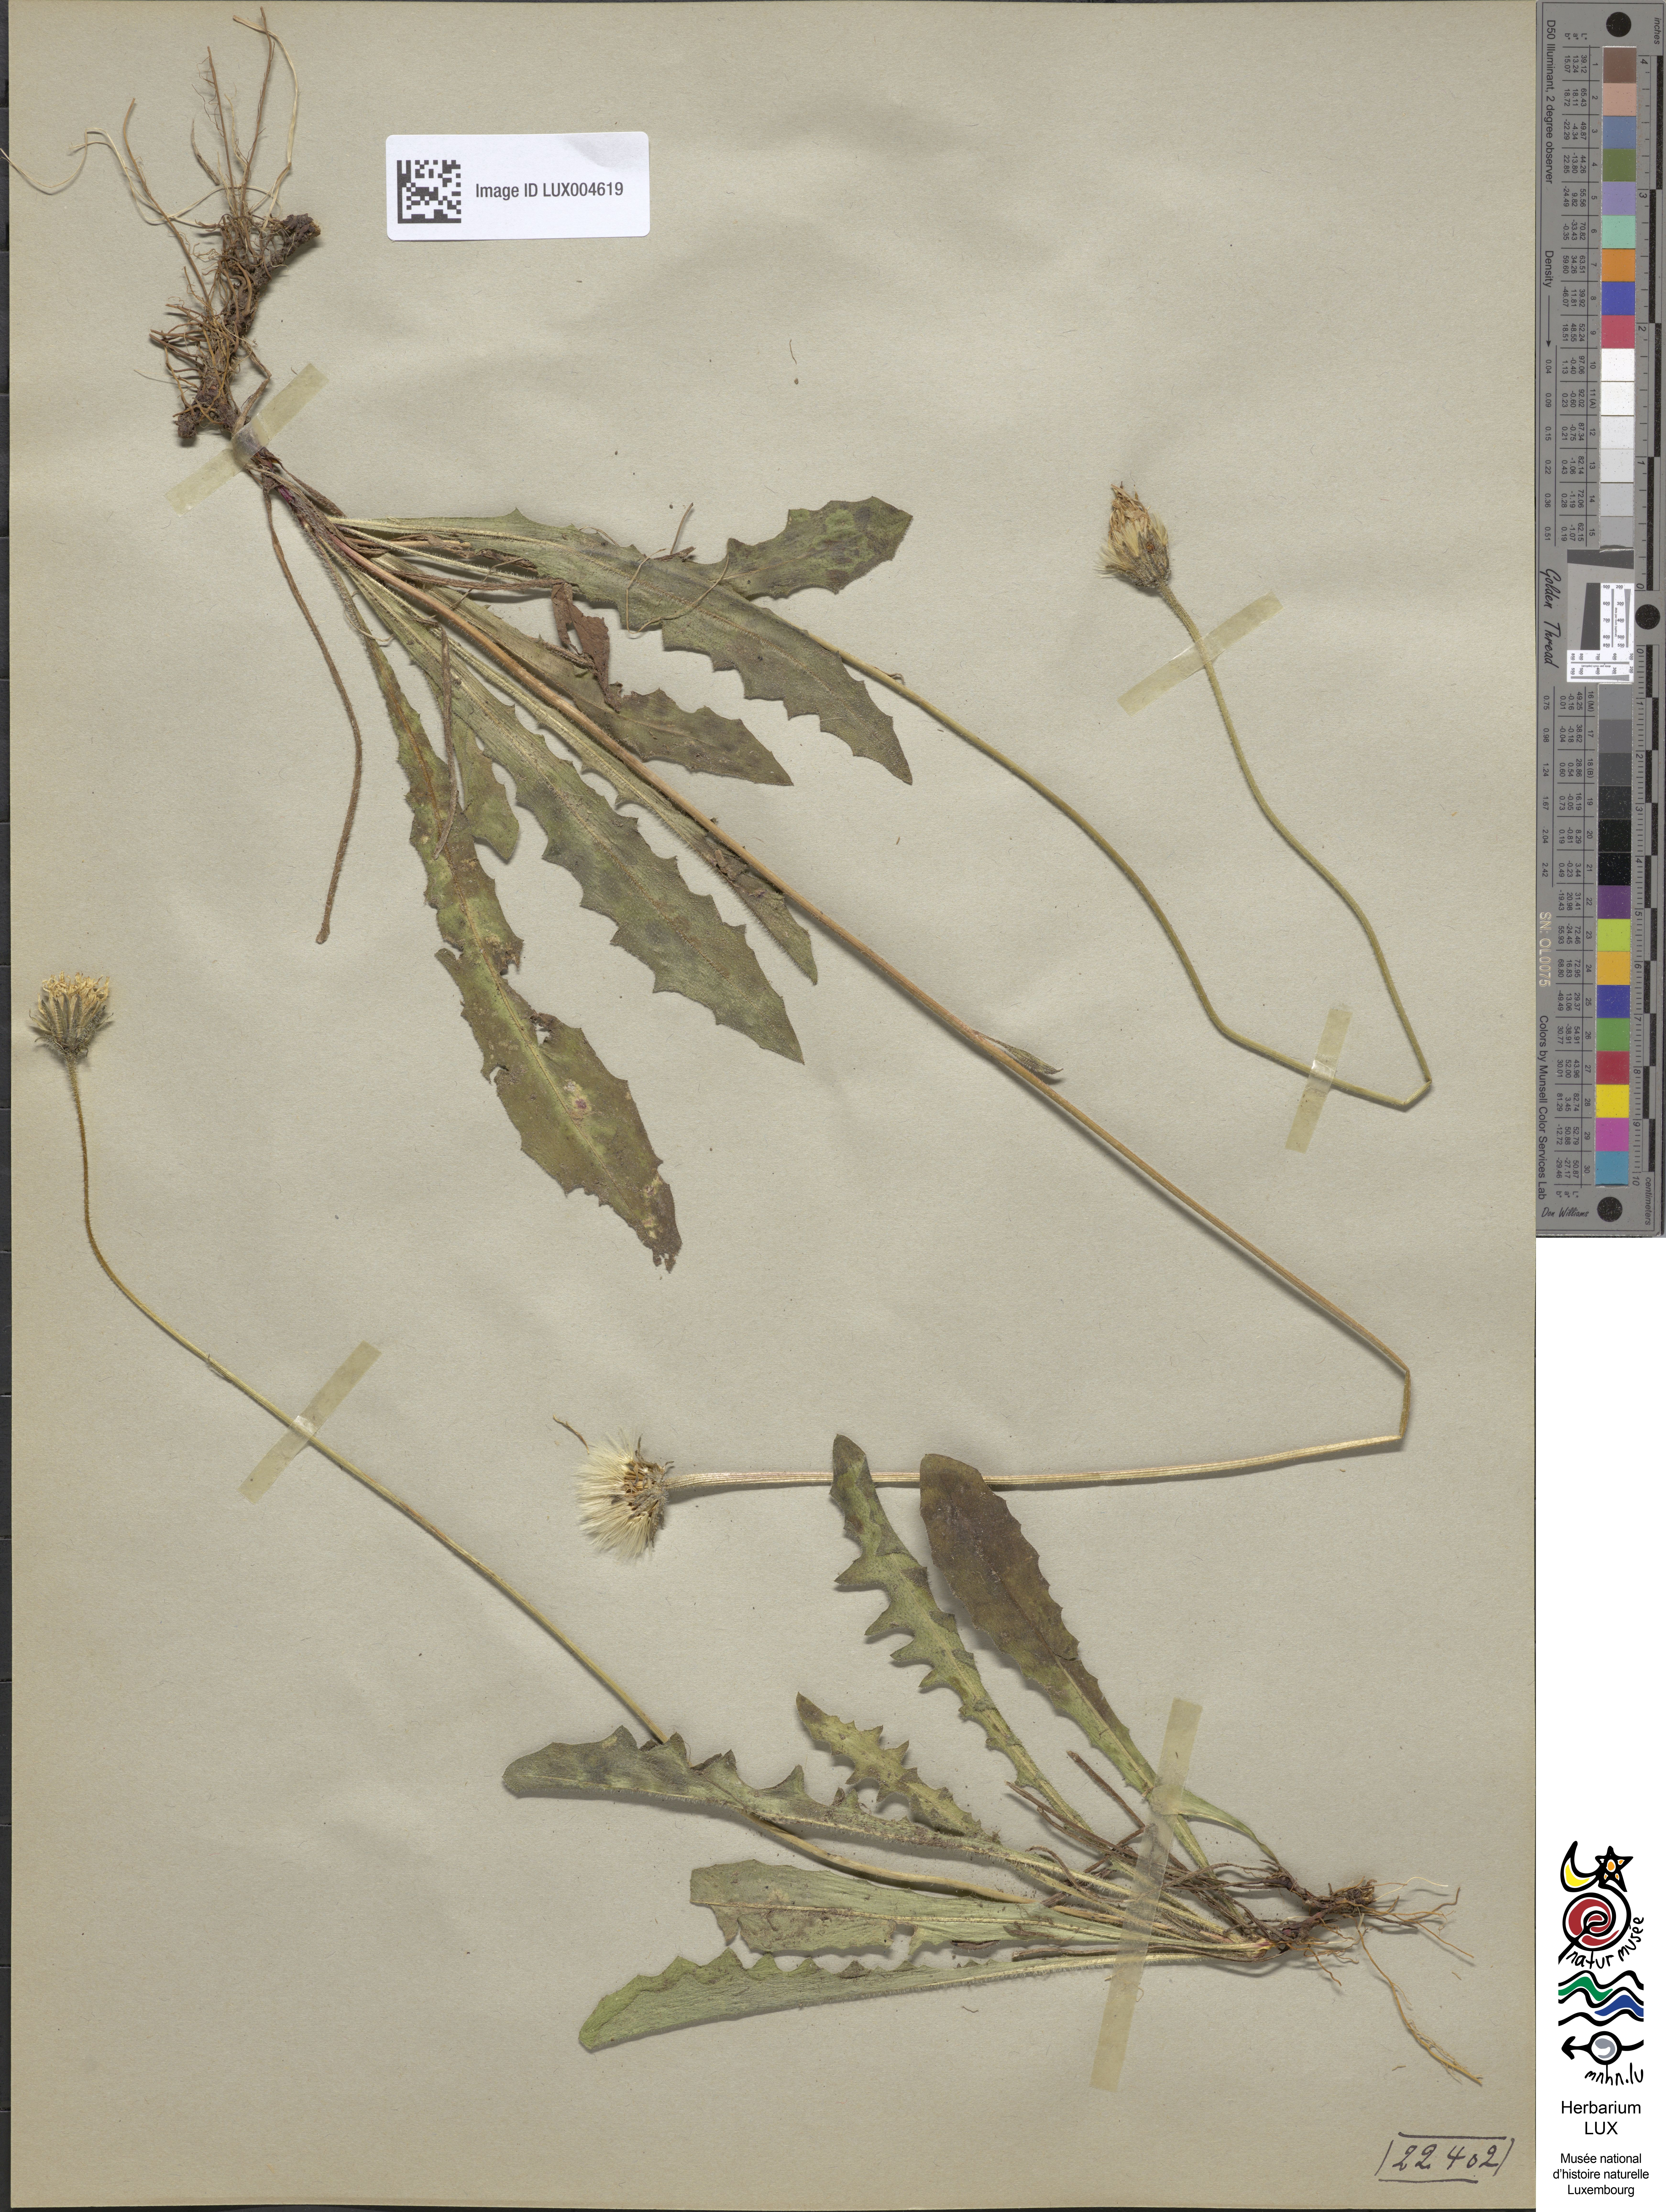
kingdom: Plantae
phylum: Tracheophyta
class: Magnoliopsida
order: Asterales
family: Asteraceae
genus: Leontodon
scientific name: Leontodon hispidus
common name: Rough hawkbit
